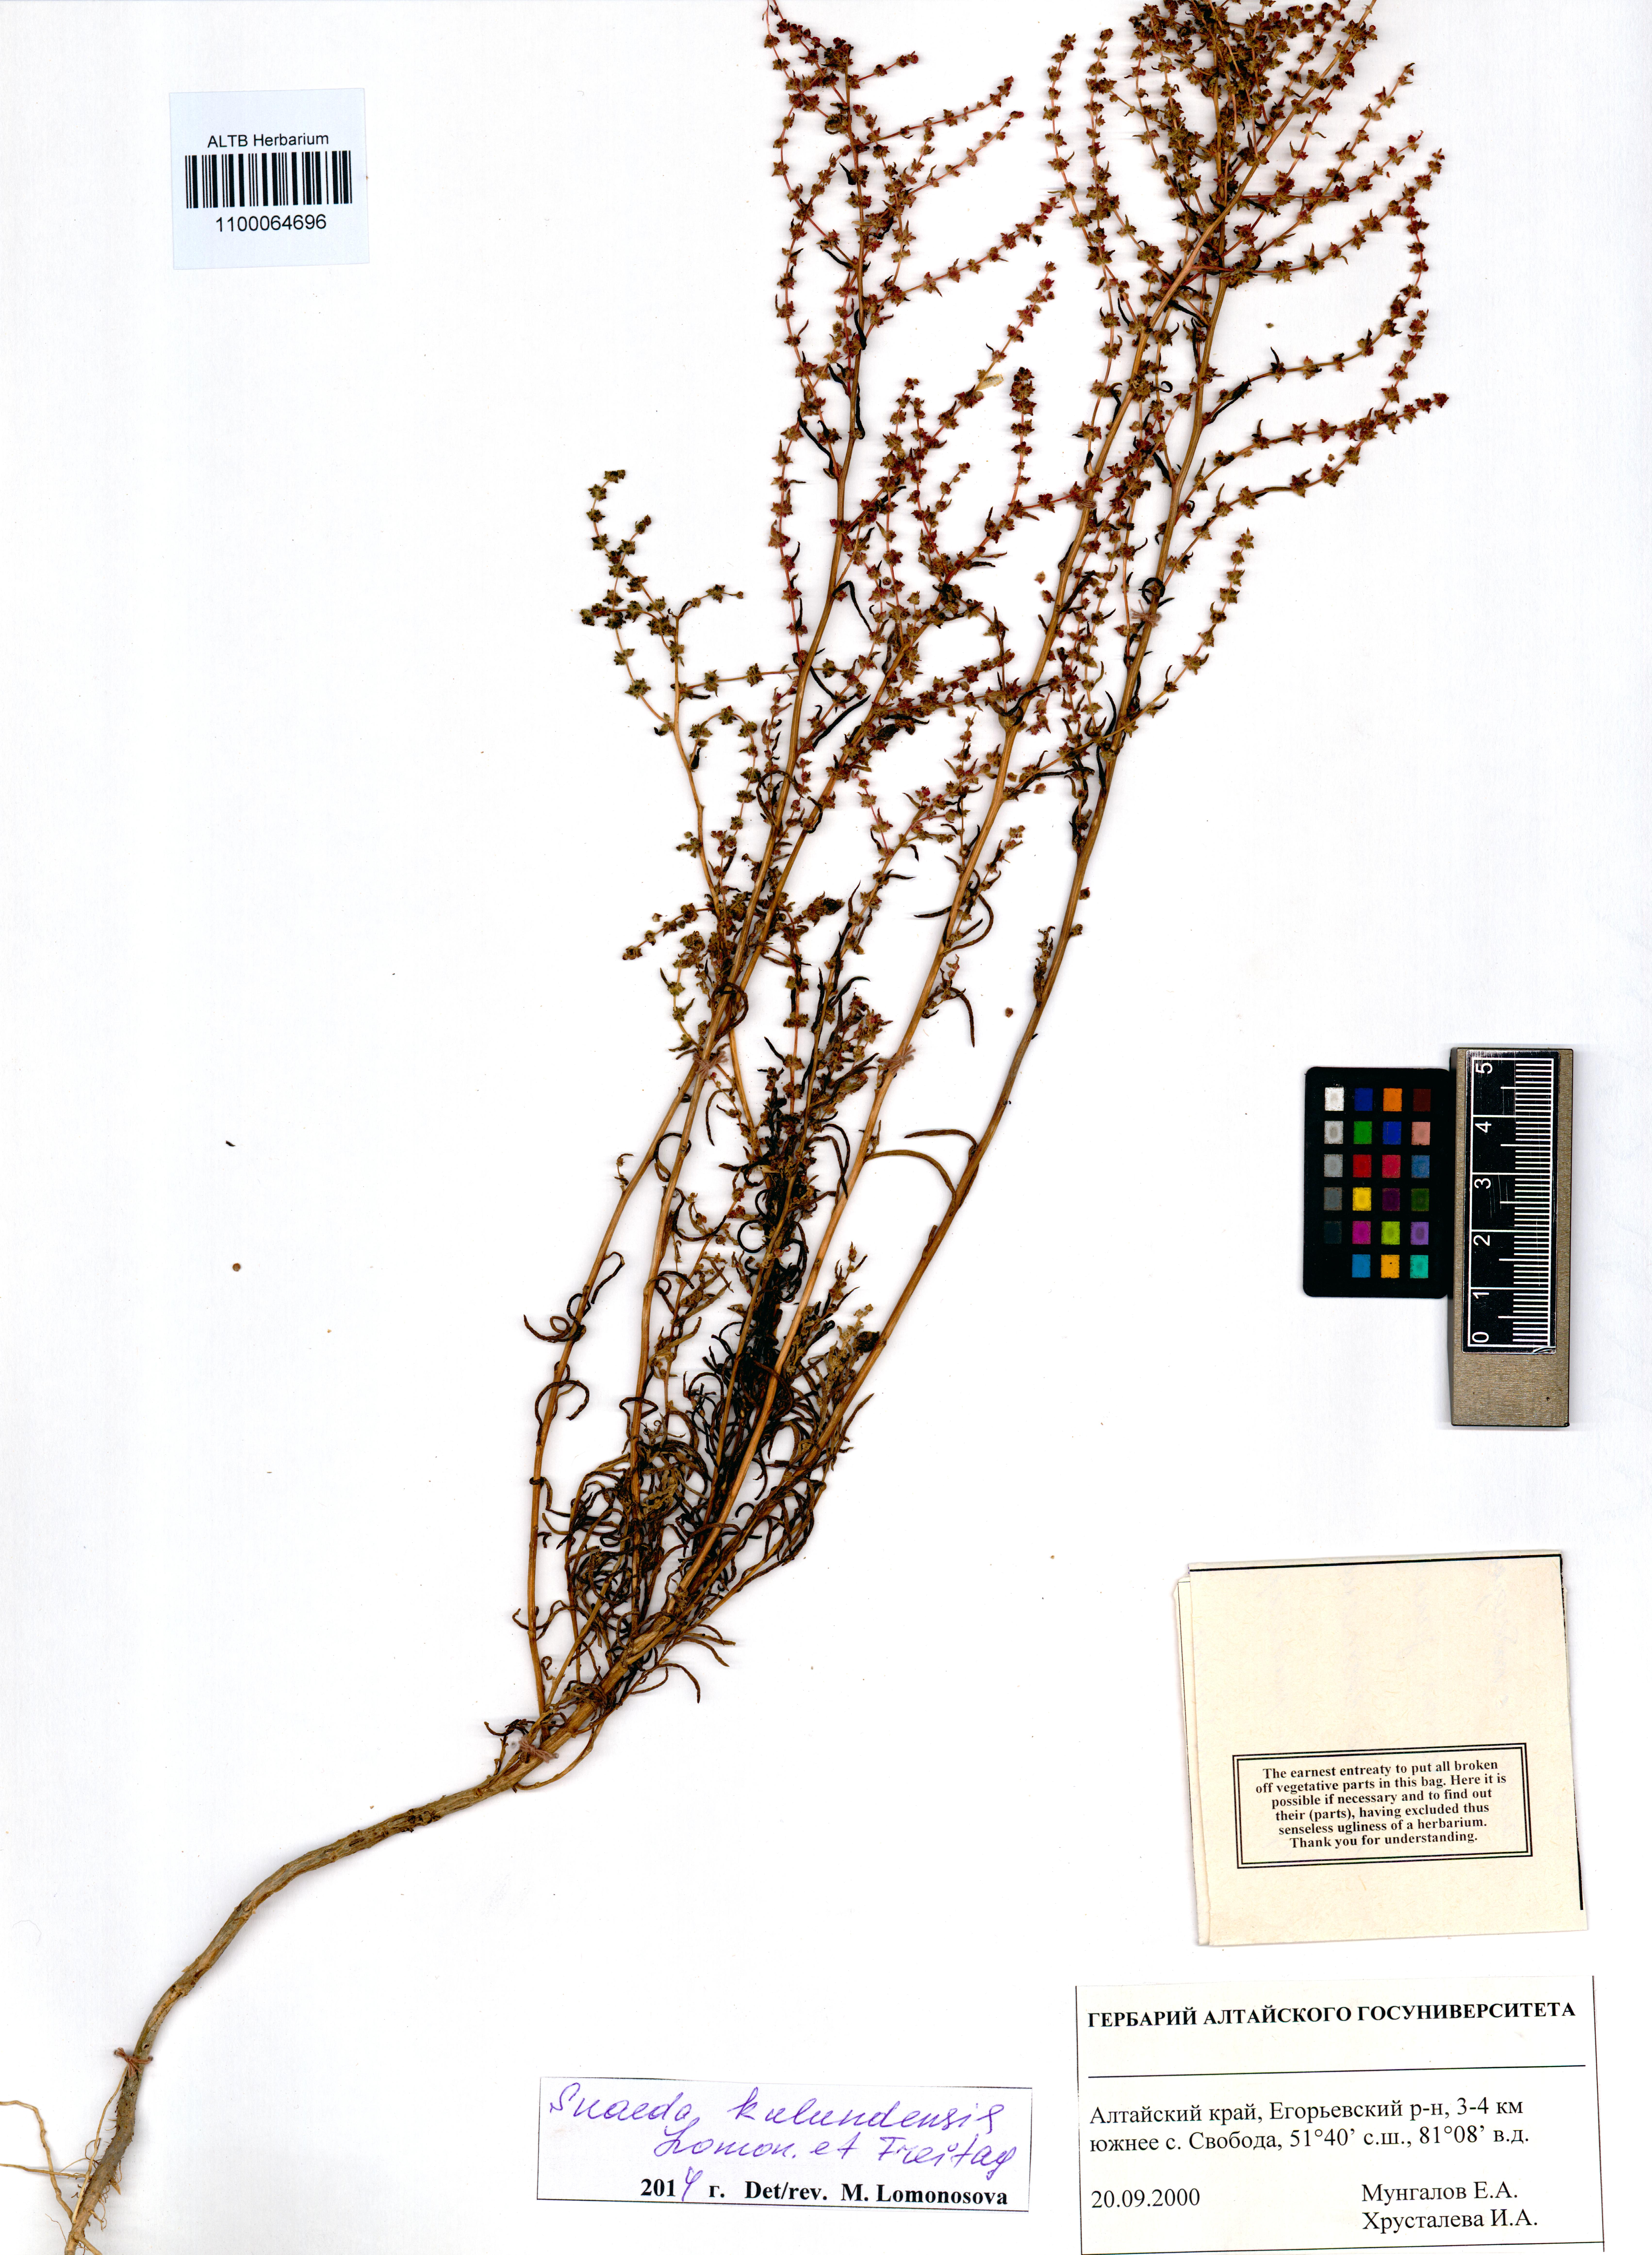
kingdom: Plantae
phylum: Tracheophyta
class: Magnoliopsida
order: Caryophyllales
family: Amaranthaceae
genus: Suaeda
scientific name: Suaeda kulundensis
